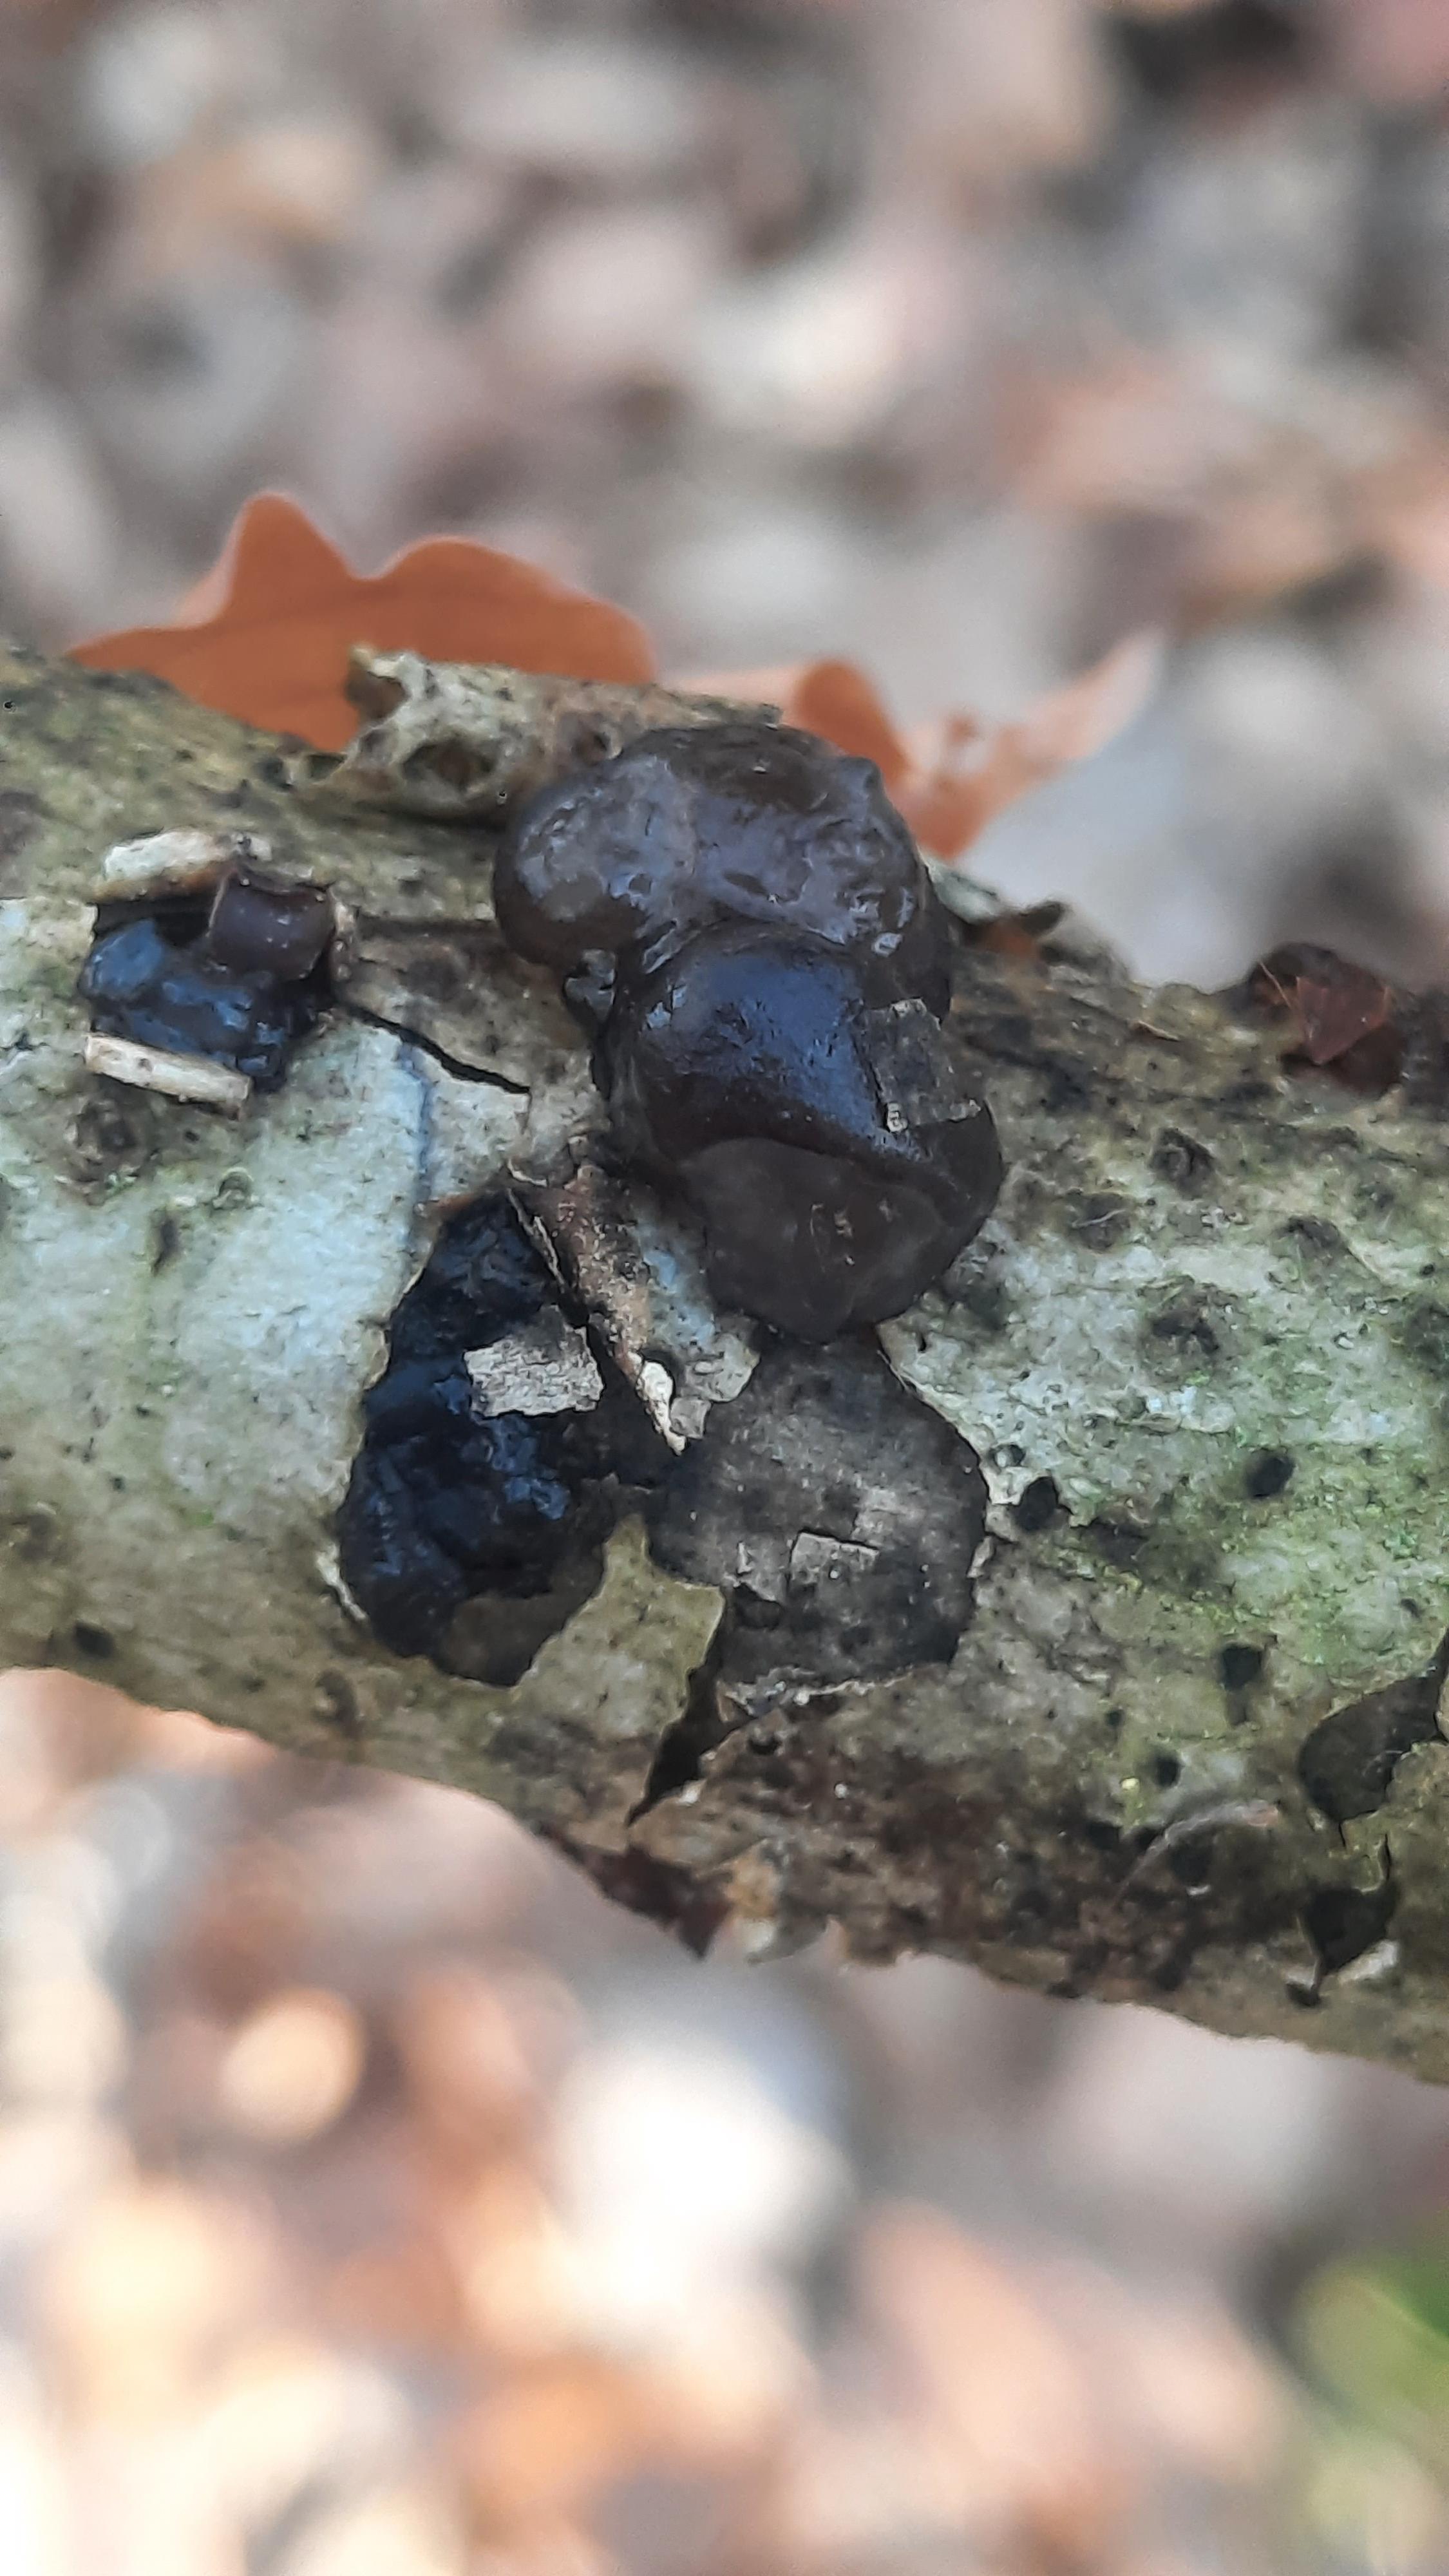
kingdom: Fungi
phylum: Basidiomycota
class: Agaricomycetes
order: Auriculariales
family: Auriculariaceae
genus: Exidia
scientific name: Exidia glandulosa
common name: ege-bævretop
